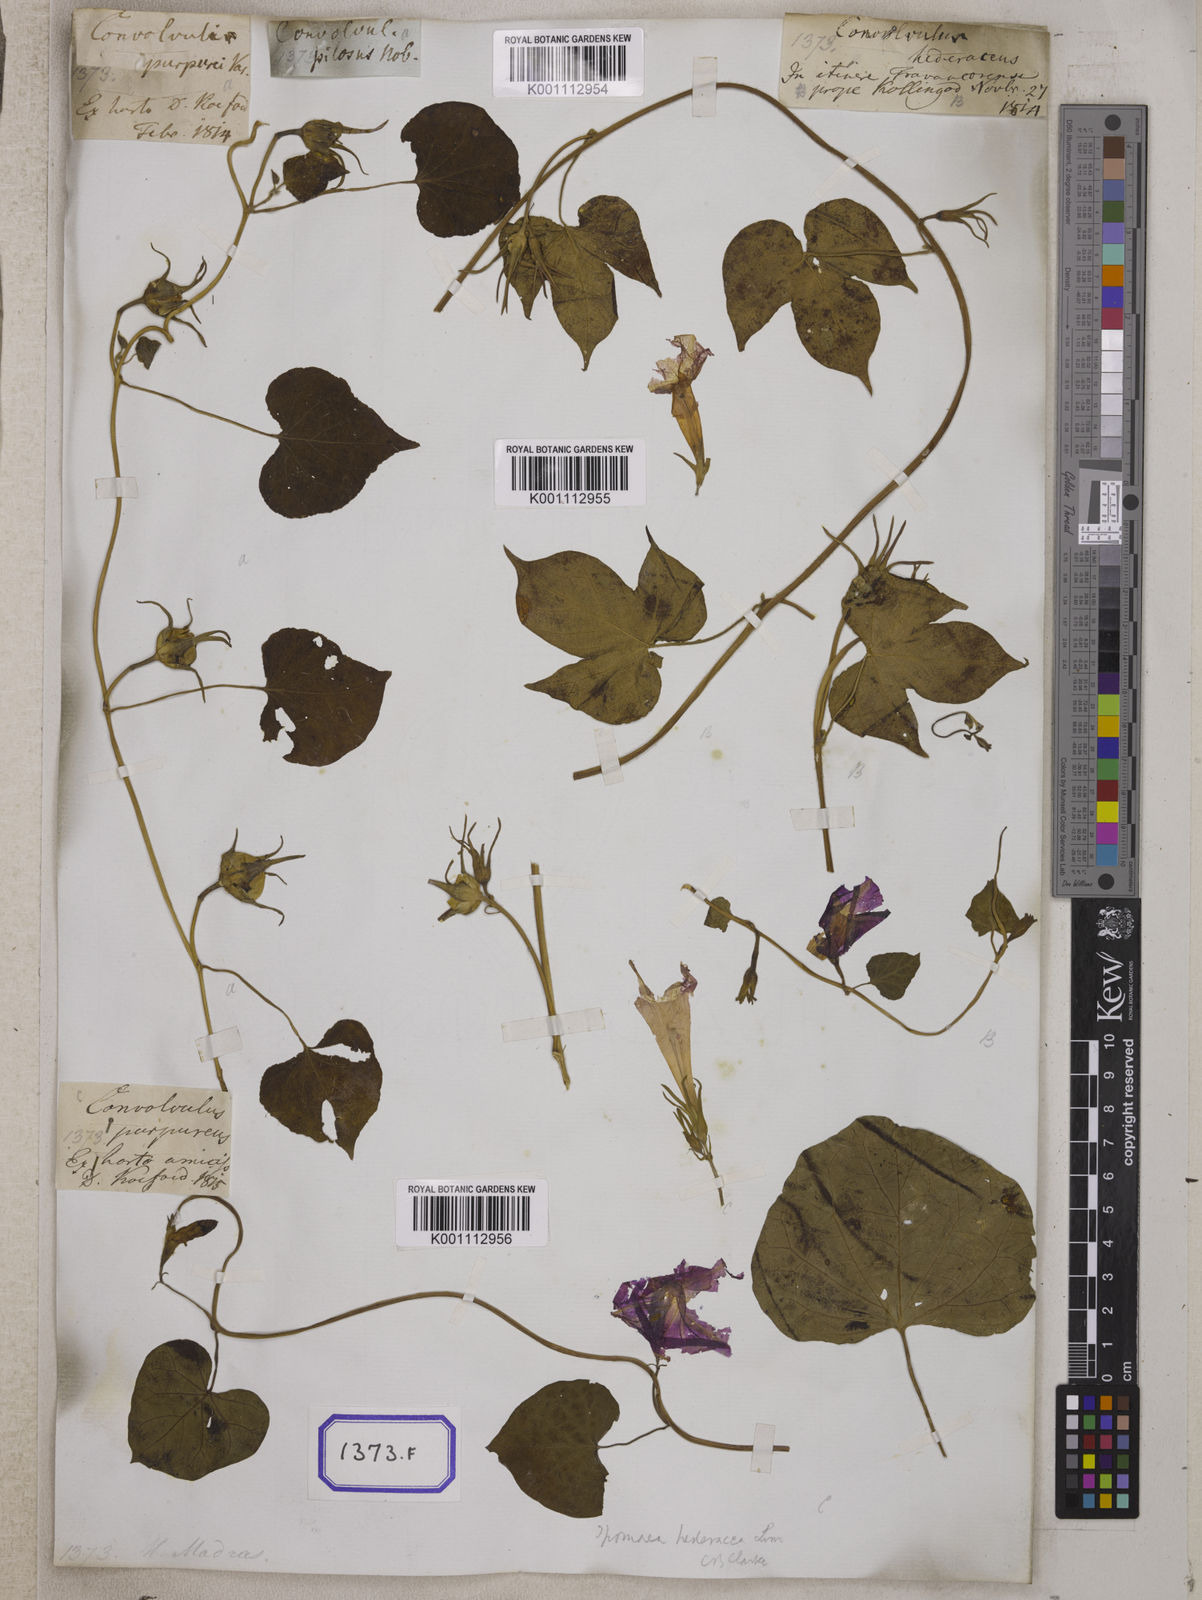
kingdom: Plantae
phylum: Tracheophyta
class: Magnoliopsida
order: Solanales
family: Convolvulaceae
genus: Ipomoea
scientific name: Ipomoea nil
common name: Japanese morning-glory
